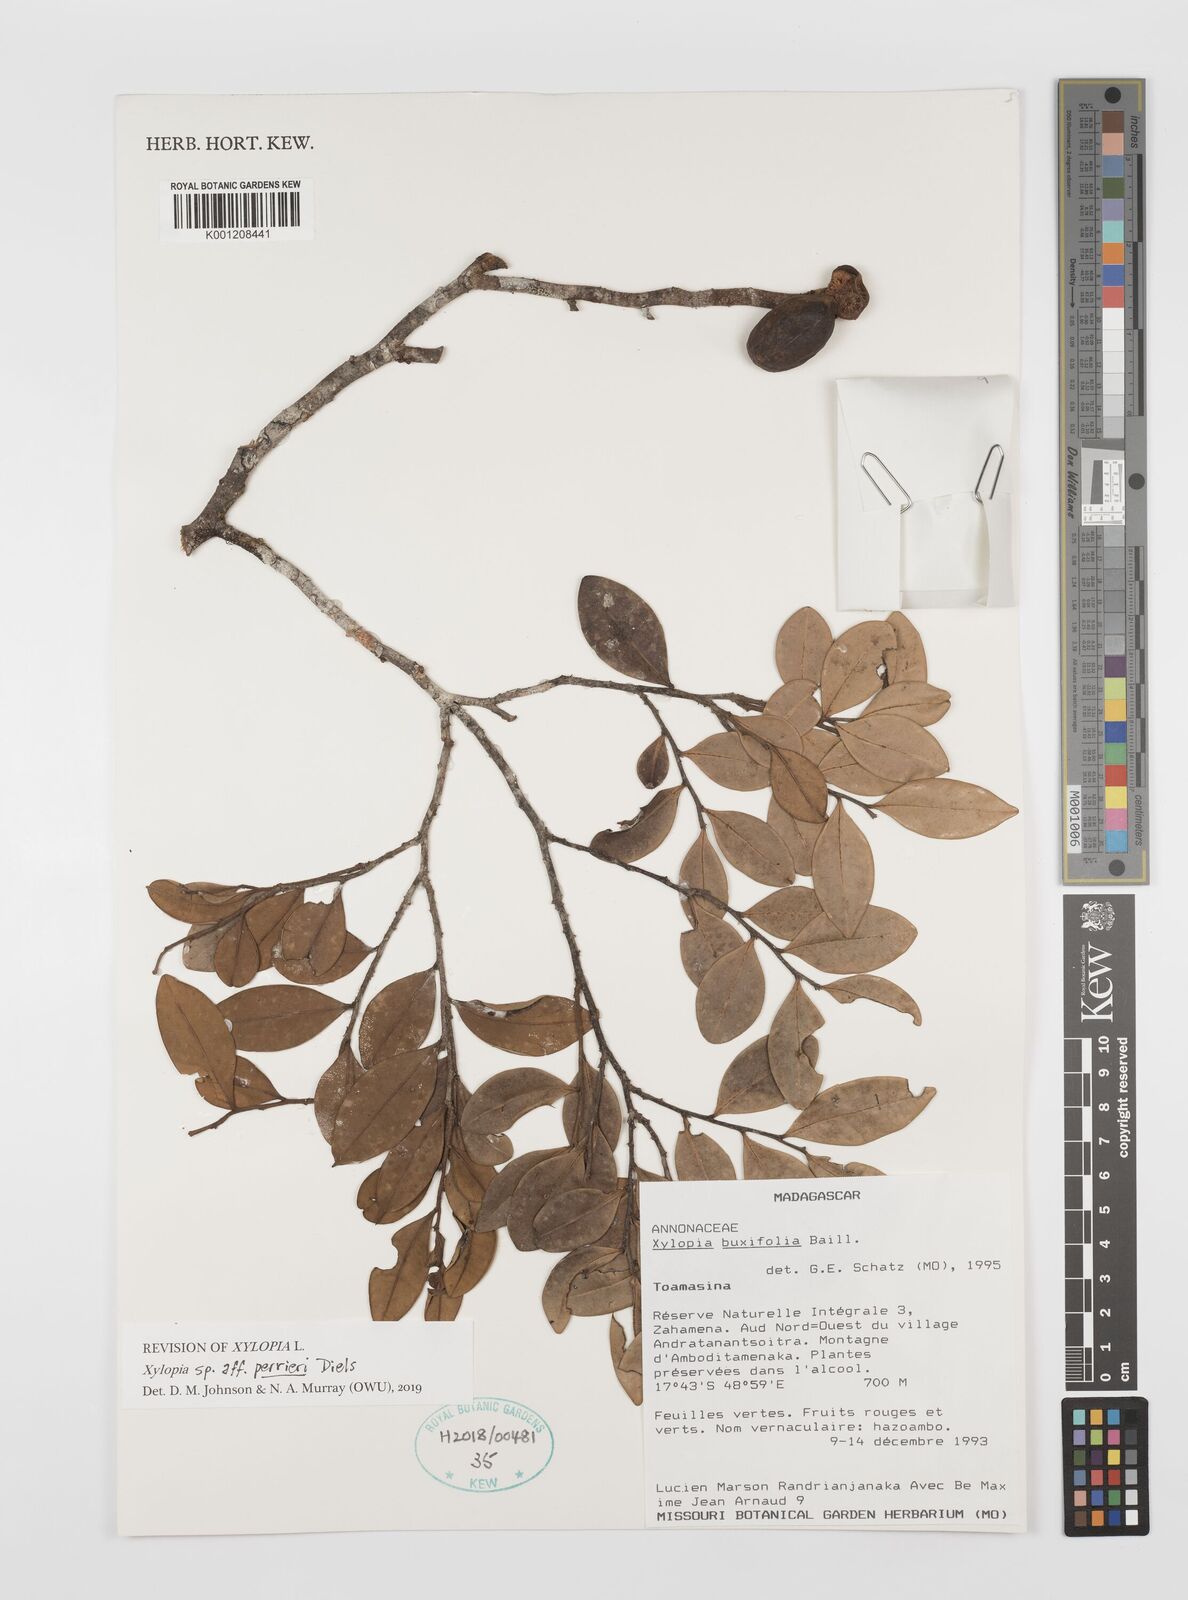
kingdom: Plantae
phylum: Tracheophyta
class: Magnoliopsida
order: Magnoliales
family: Annonaceae
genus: Xylopia
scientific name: Xylopia buxifolia
